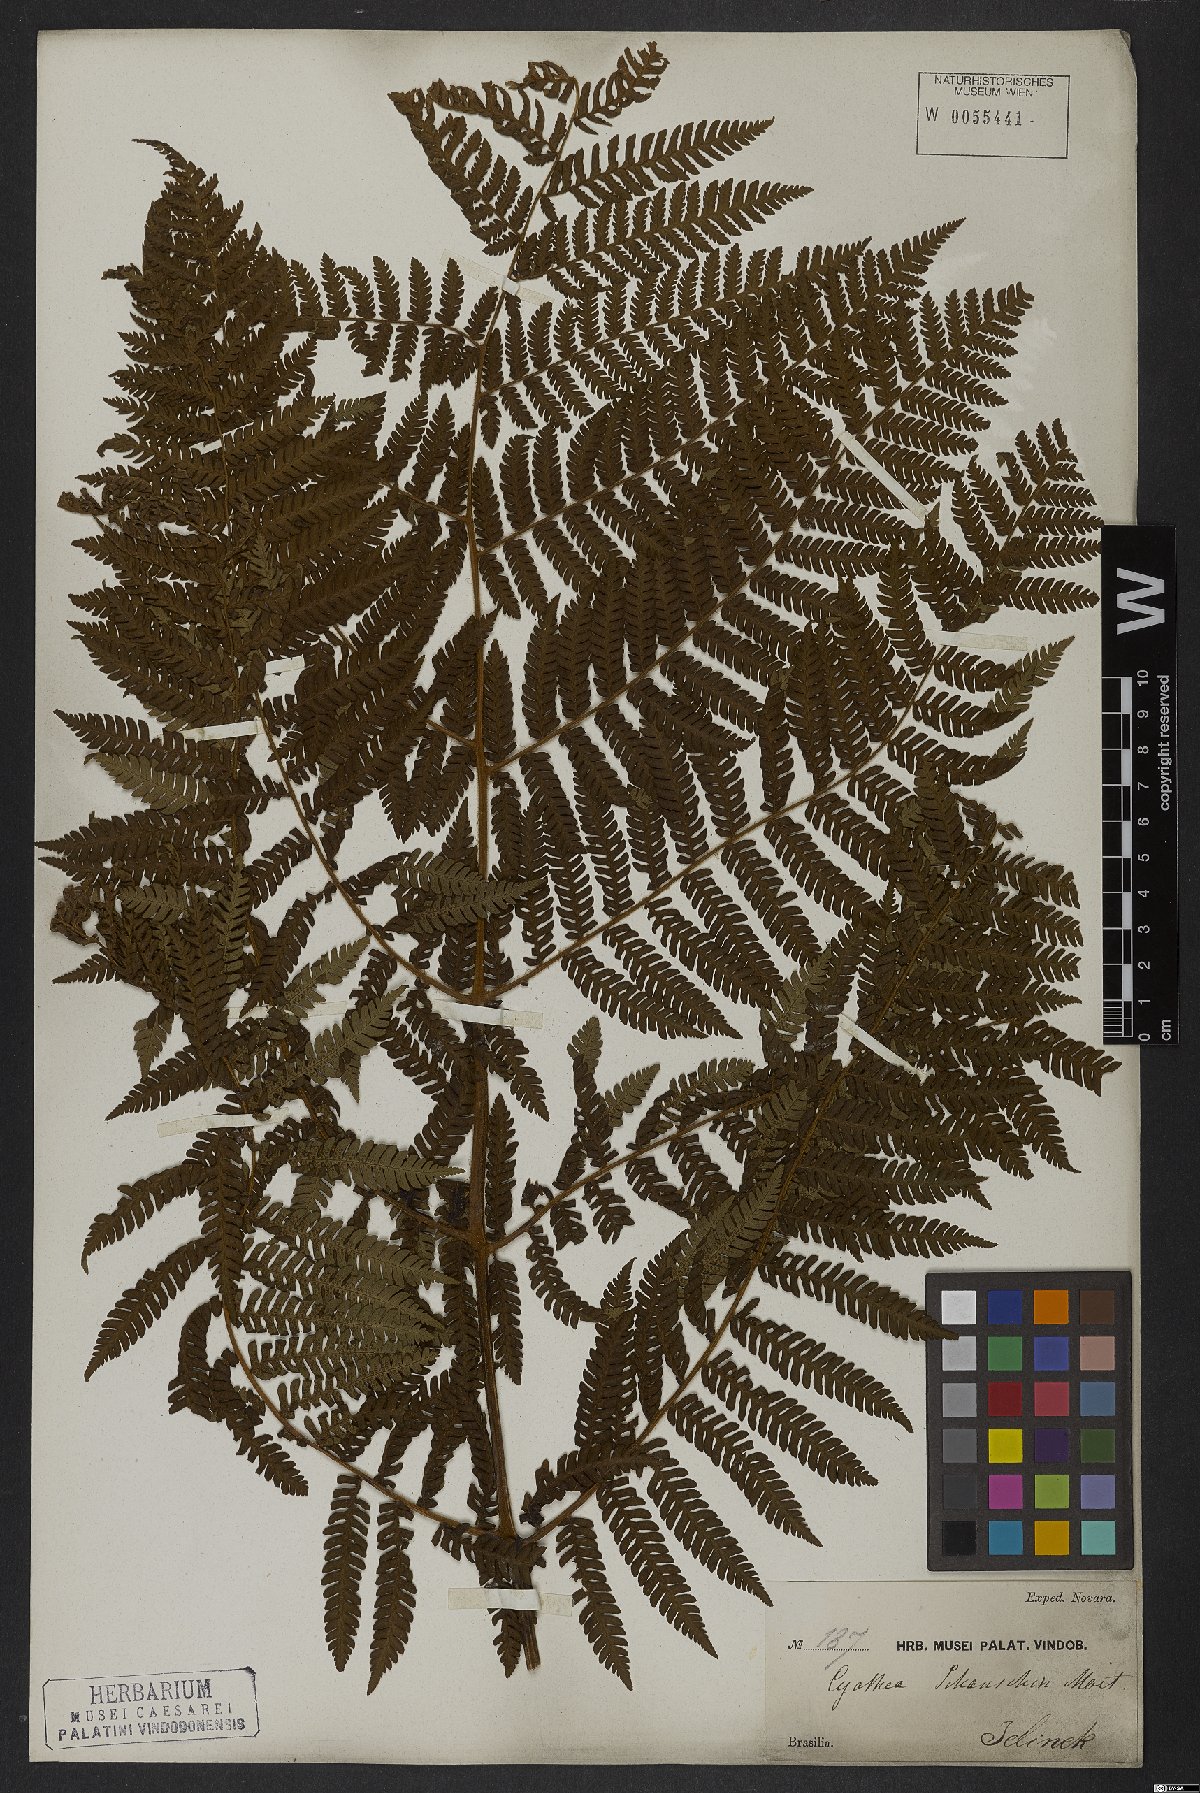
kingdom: Plantae
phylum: Tracheophyta
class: Polypodiopsida
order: Cyatheales
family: Cyatheaceae
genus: Cyathea
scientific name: Cyathea atrovirens
